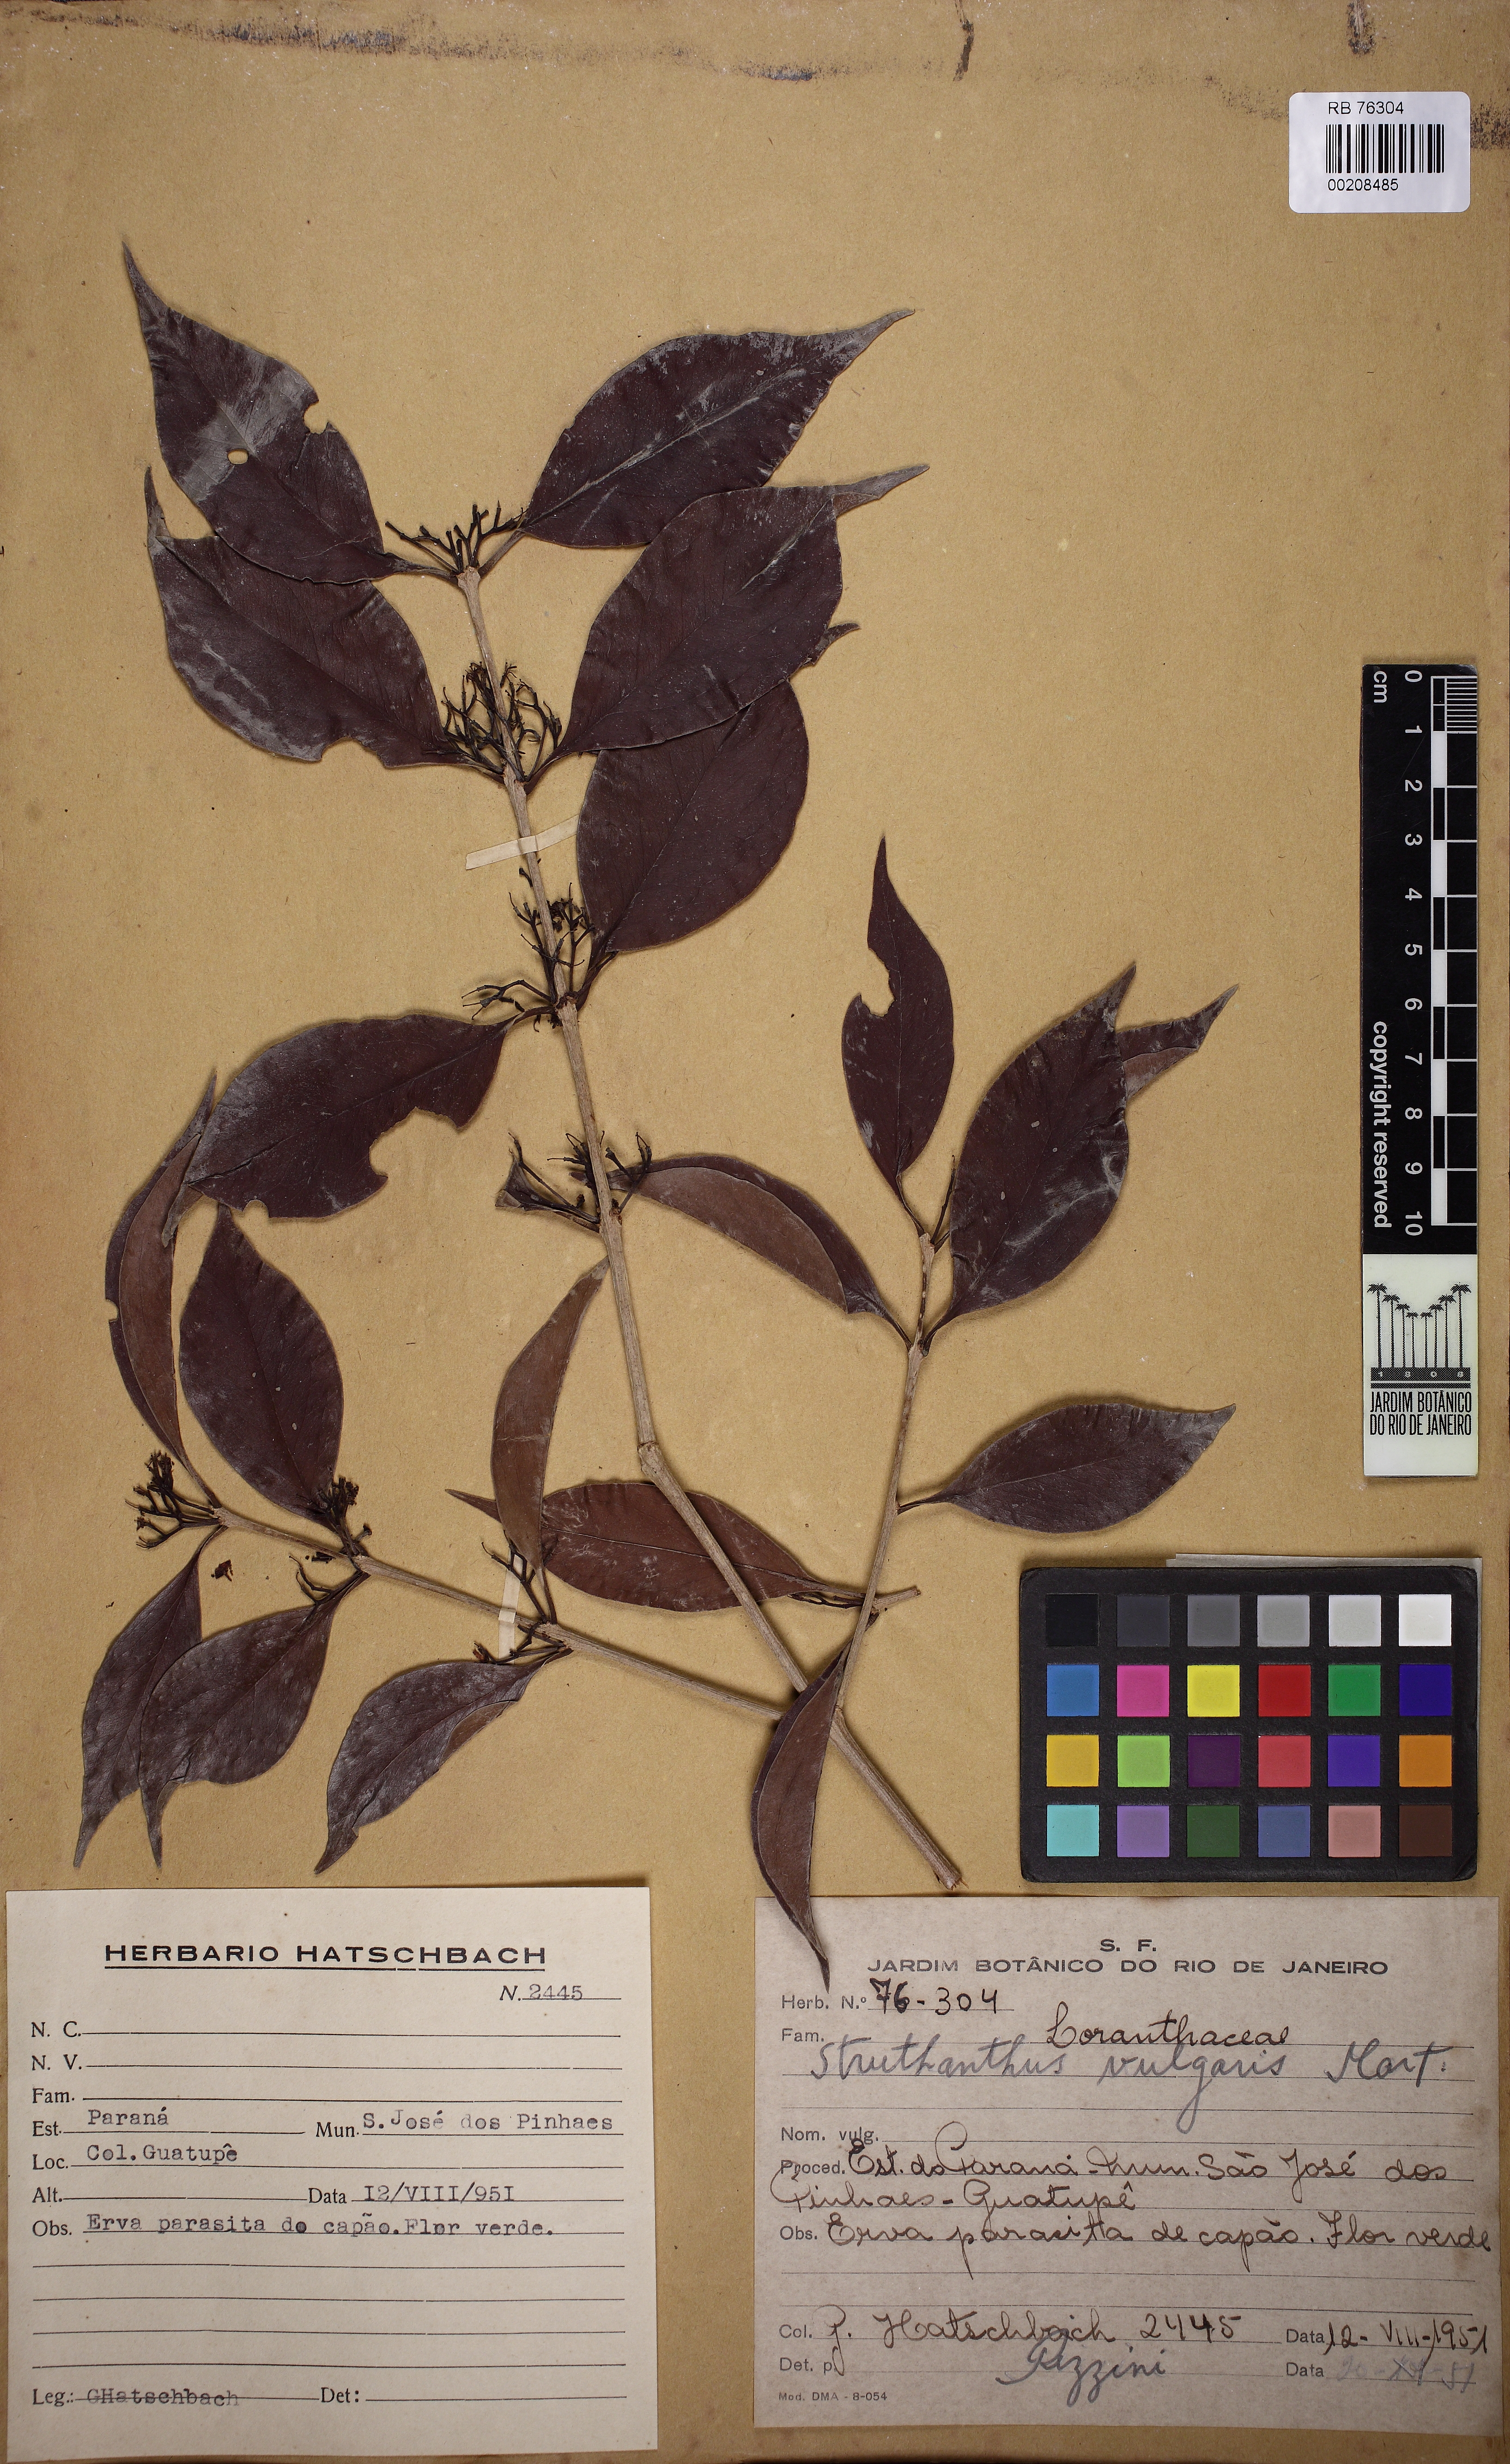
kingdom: Plantae
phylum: Tracheophyta
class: Magnoliopsida
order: Santalales
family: Loranthaceae
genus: Struthanthus
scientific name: Struthanthus marginatus
